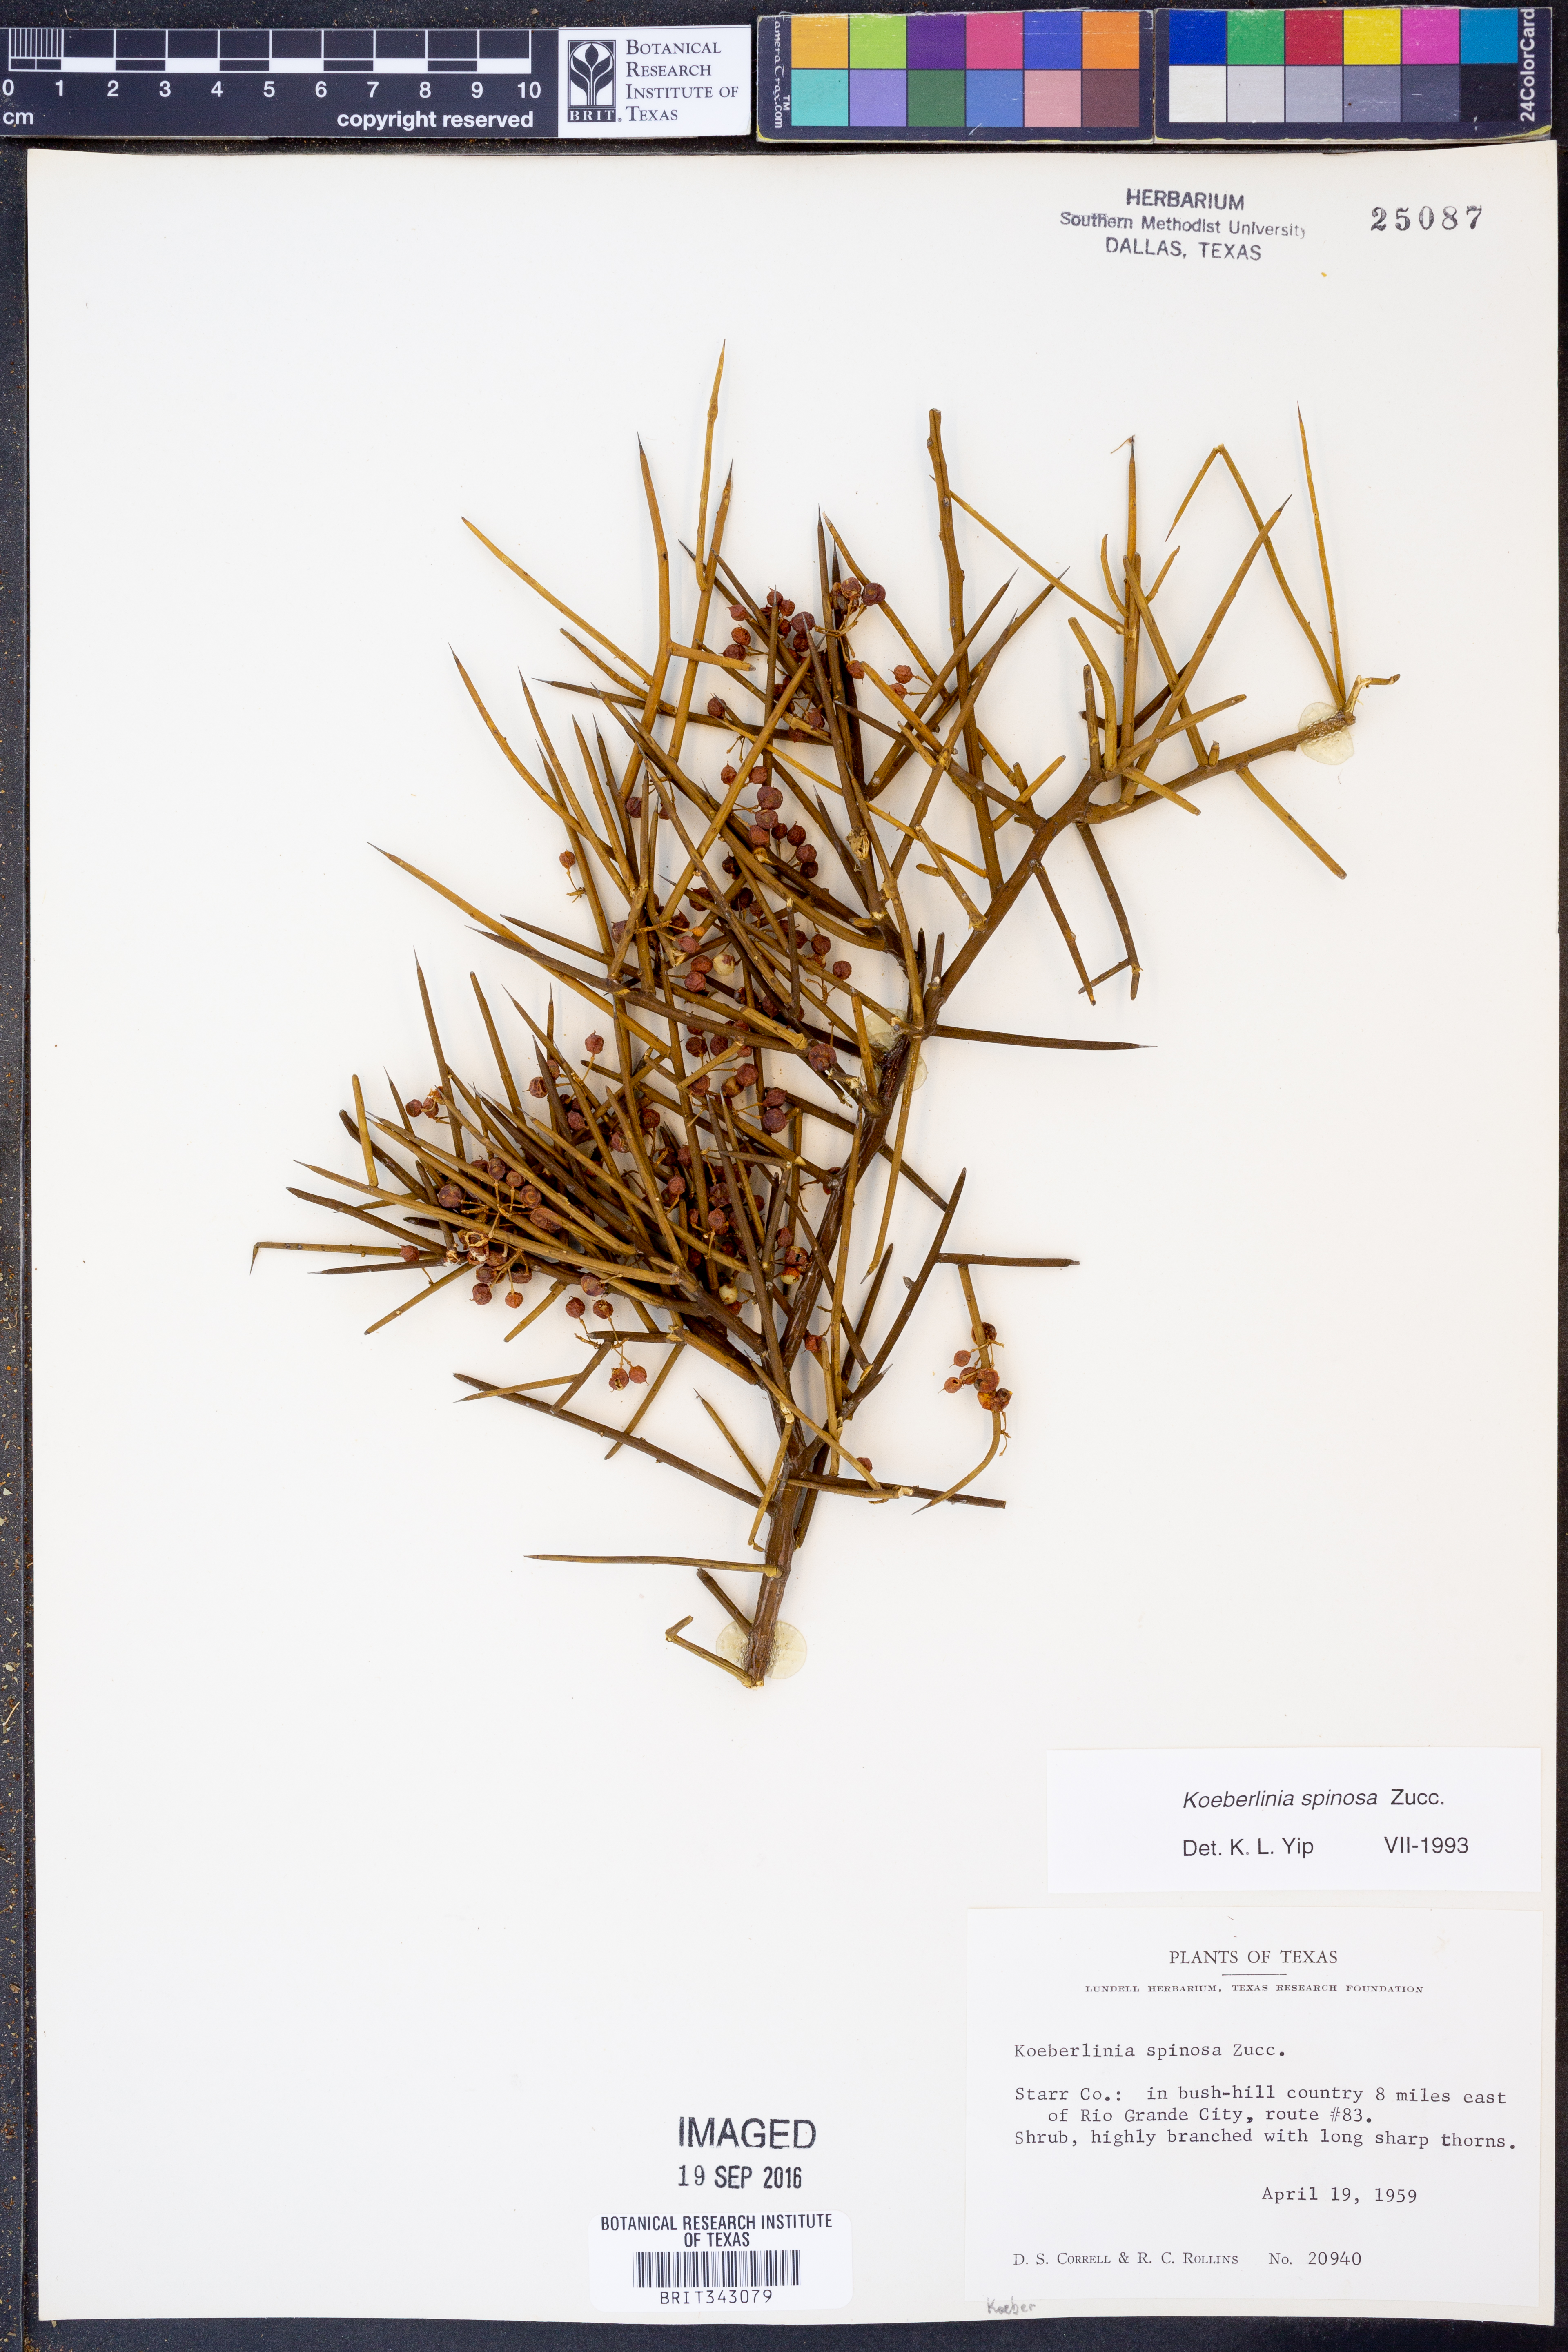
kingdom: Plantae
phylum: Tracheophyta
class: Magnoliopsida
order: Brassicales
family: Koeberliniaceae
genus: Koeberlinia
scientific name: Koeberlinia spinosa
